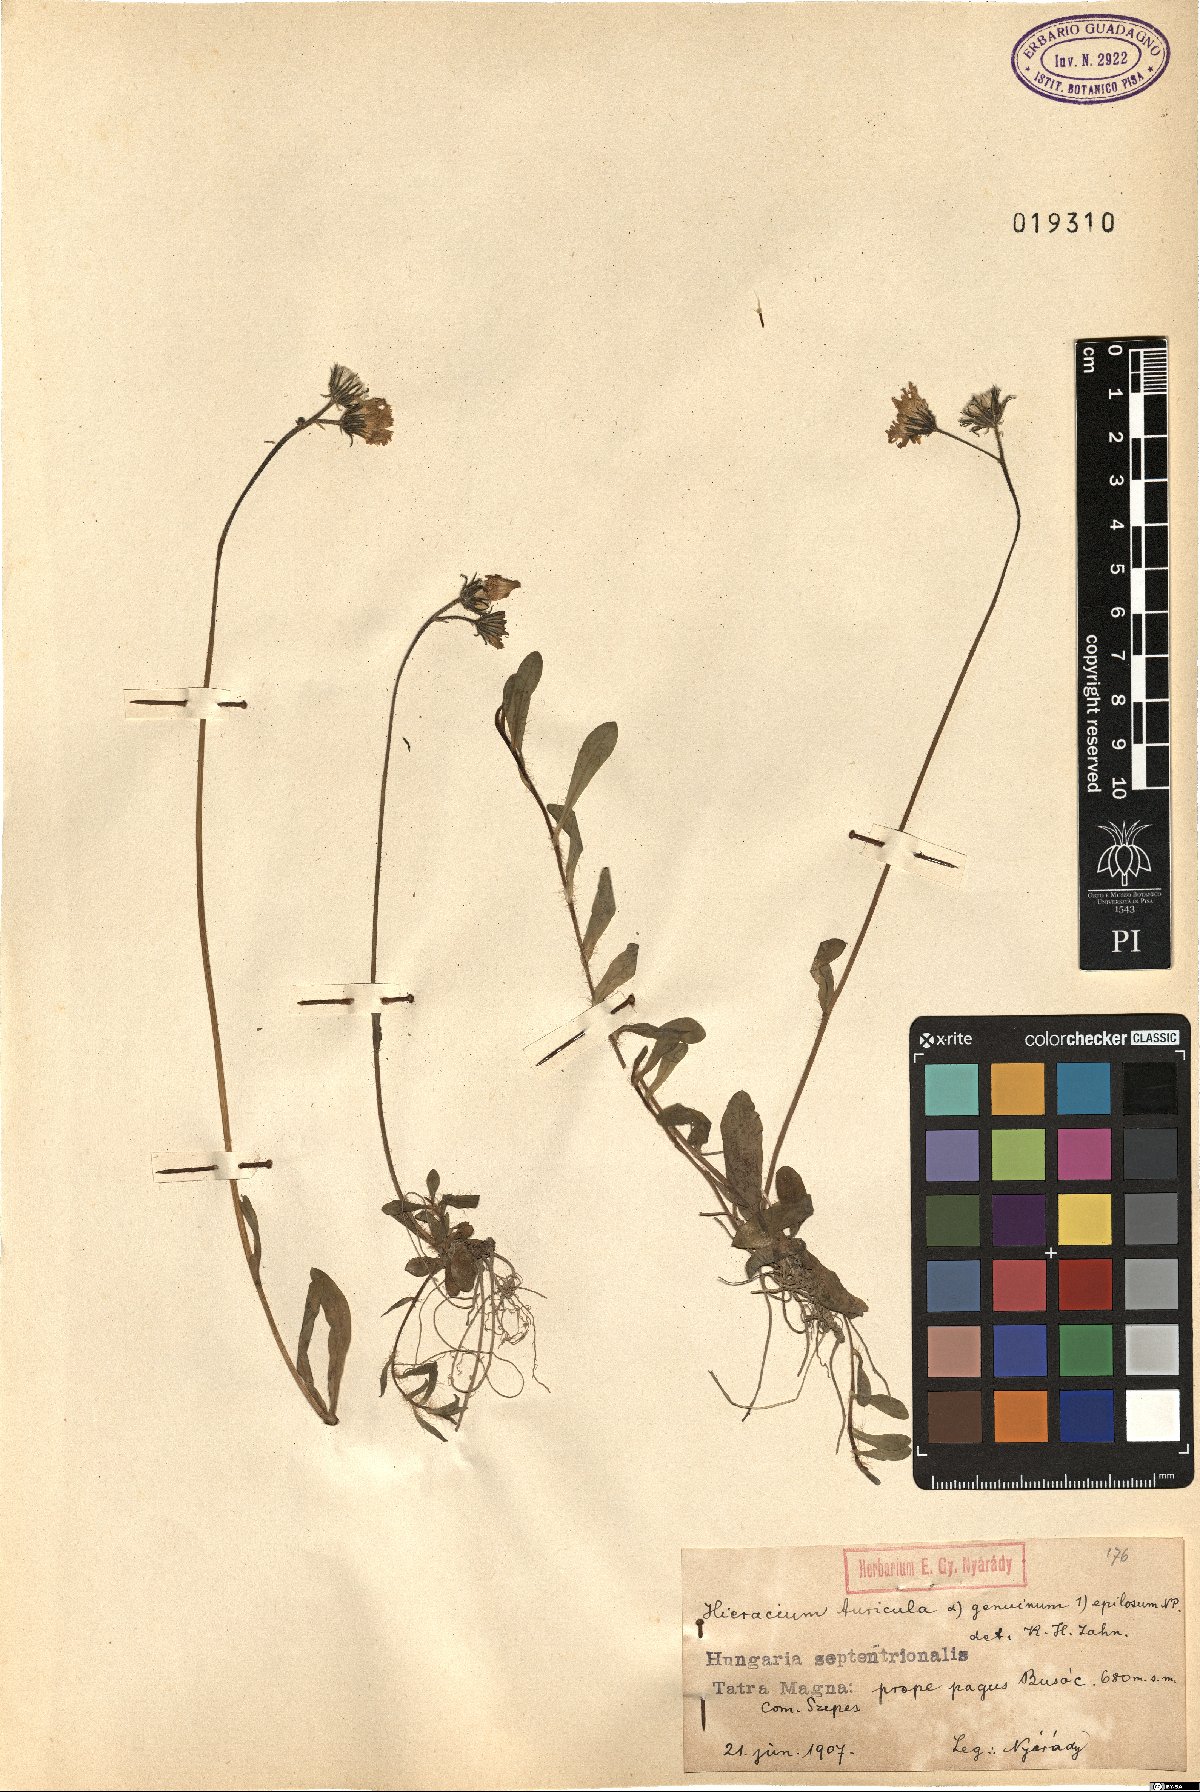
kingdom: Plantae
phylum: Tracheophyta
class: Magnoliopsida
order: Asterales
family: Asteraceae
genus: Pilosella
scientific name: Pilosella floribunda
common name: Glaucous hawkweed
